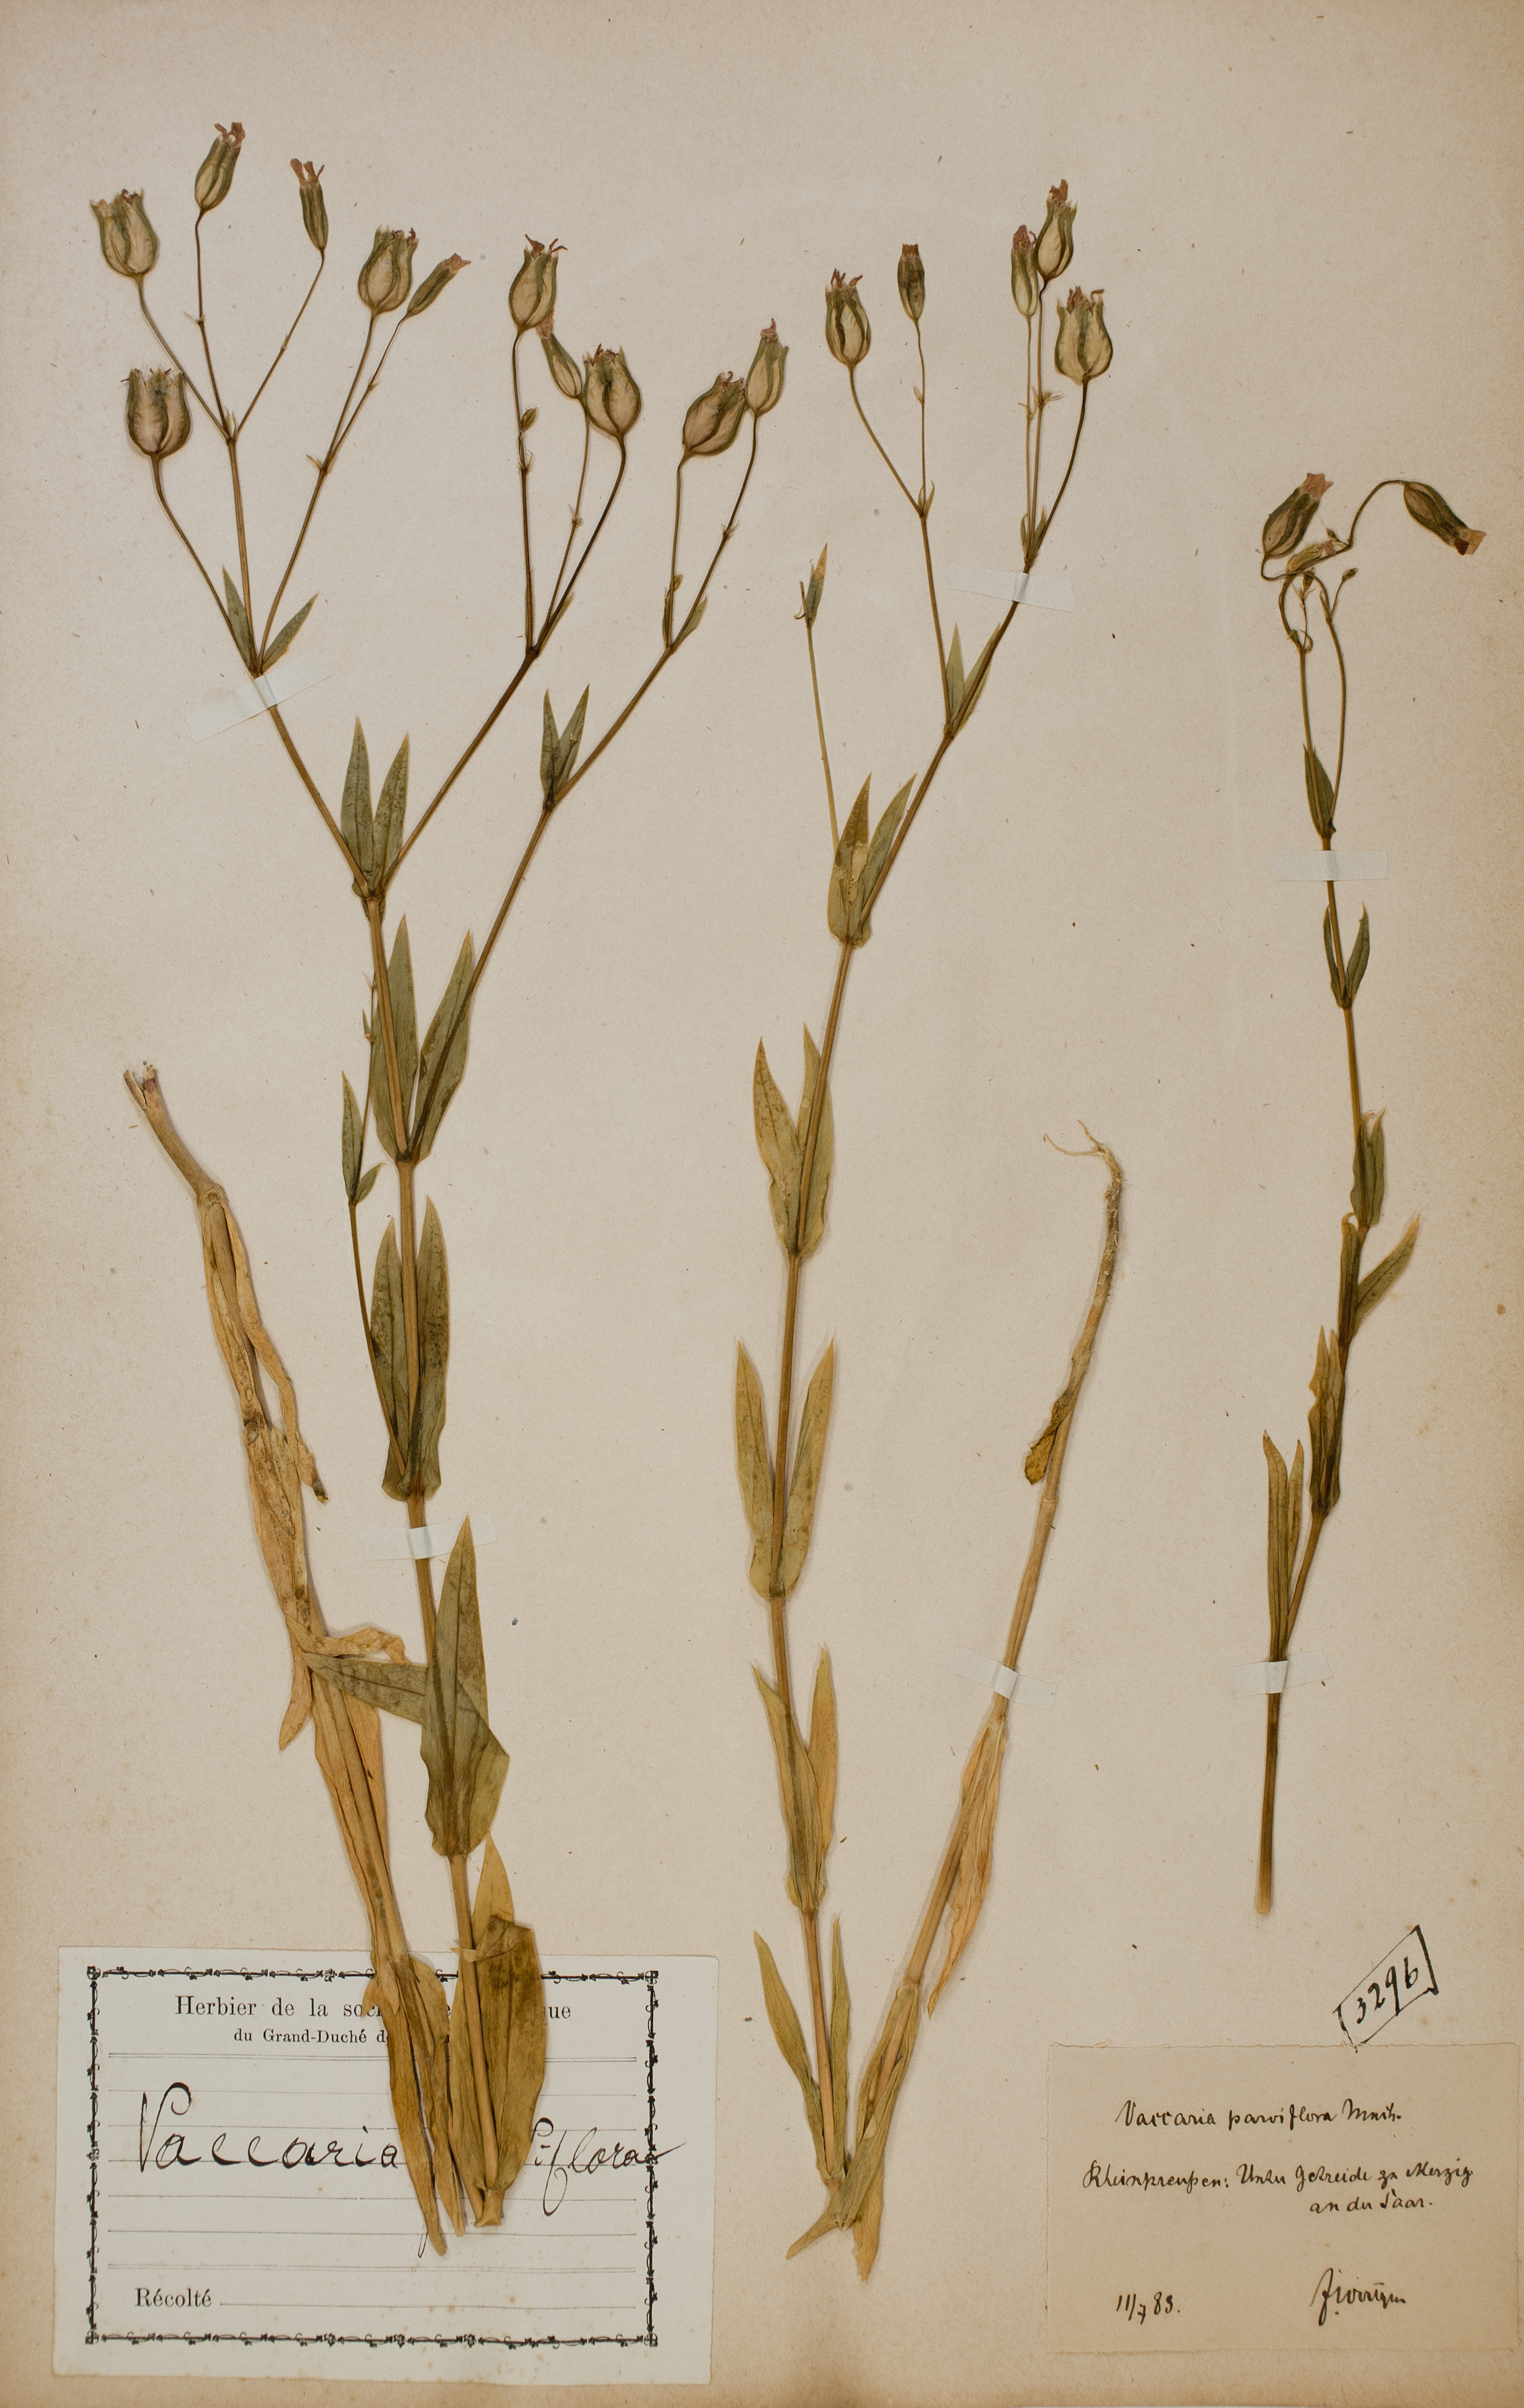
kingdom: Plantae
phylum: Tracheophyta
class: Magnoliopsida
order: Caryophyllales
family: Caryophyllaceae
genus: Gypsophila
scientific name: Gypsophila vaccaria
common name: Cow soapwort
